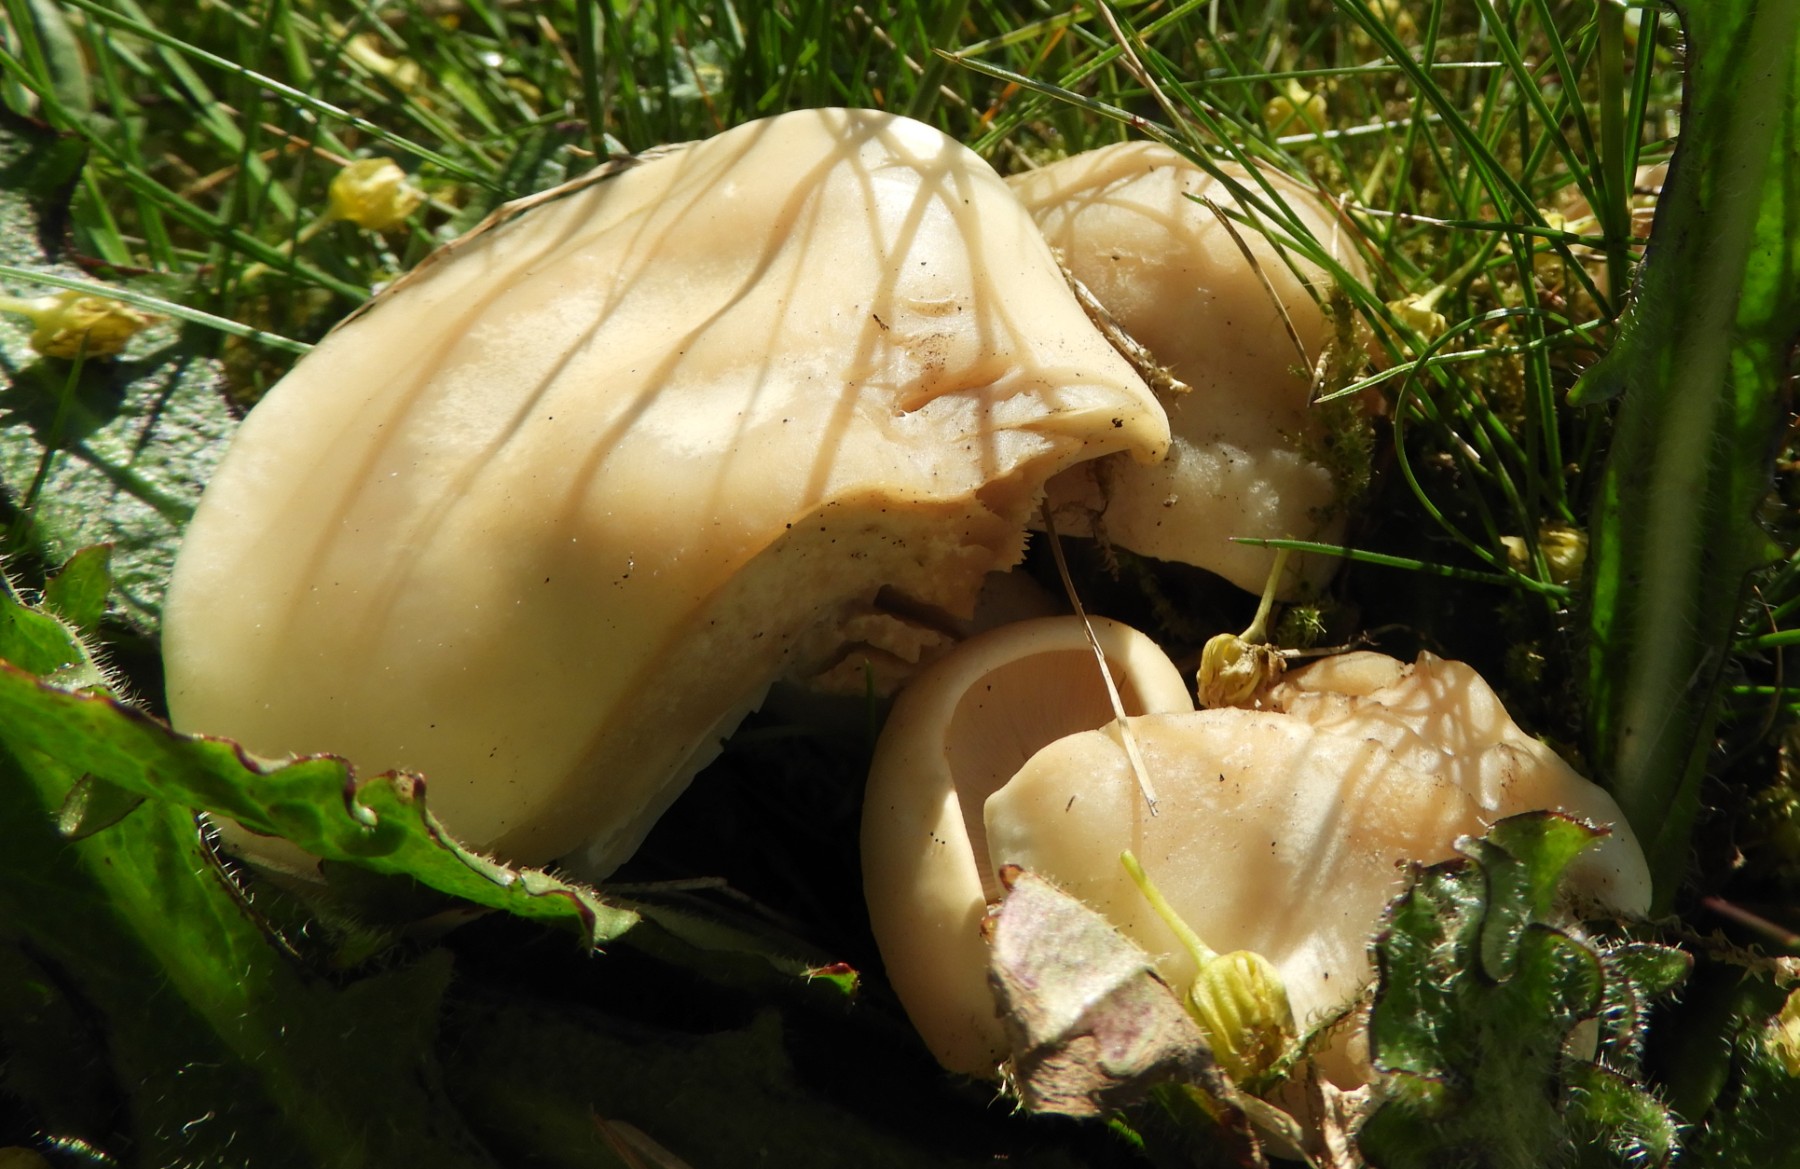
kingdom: Fungi
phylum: Basidiomycota
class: Agaricomycetes
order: Agaricales
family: Lyophyllaceae
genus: Calocybe
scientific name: Calocybe gambosa
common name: vårmusseron
